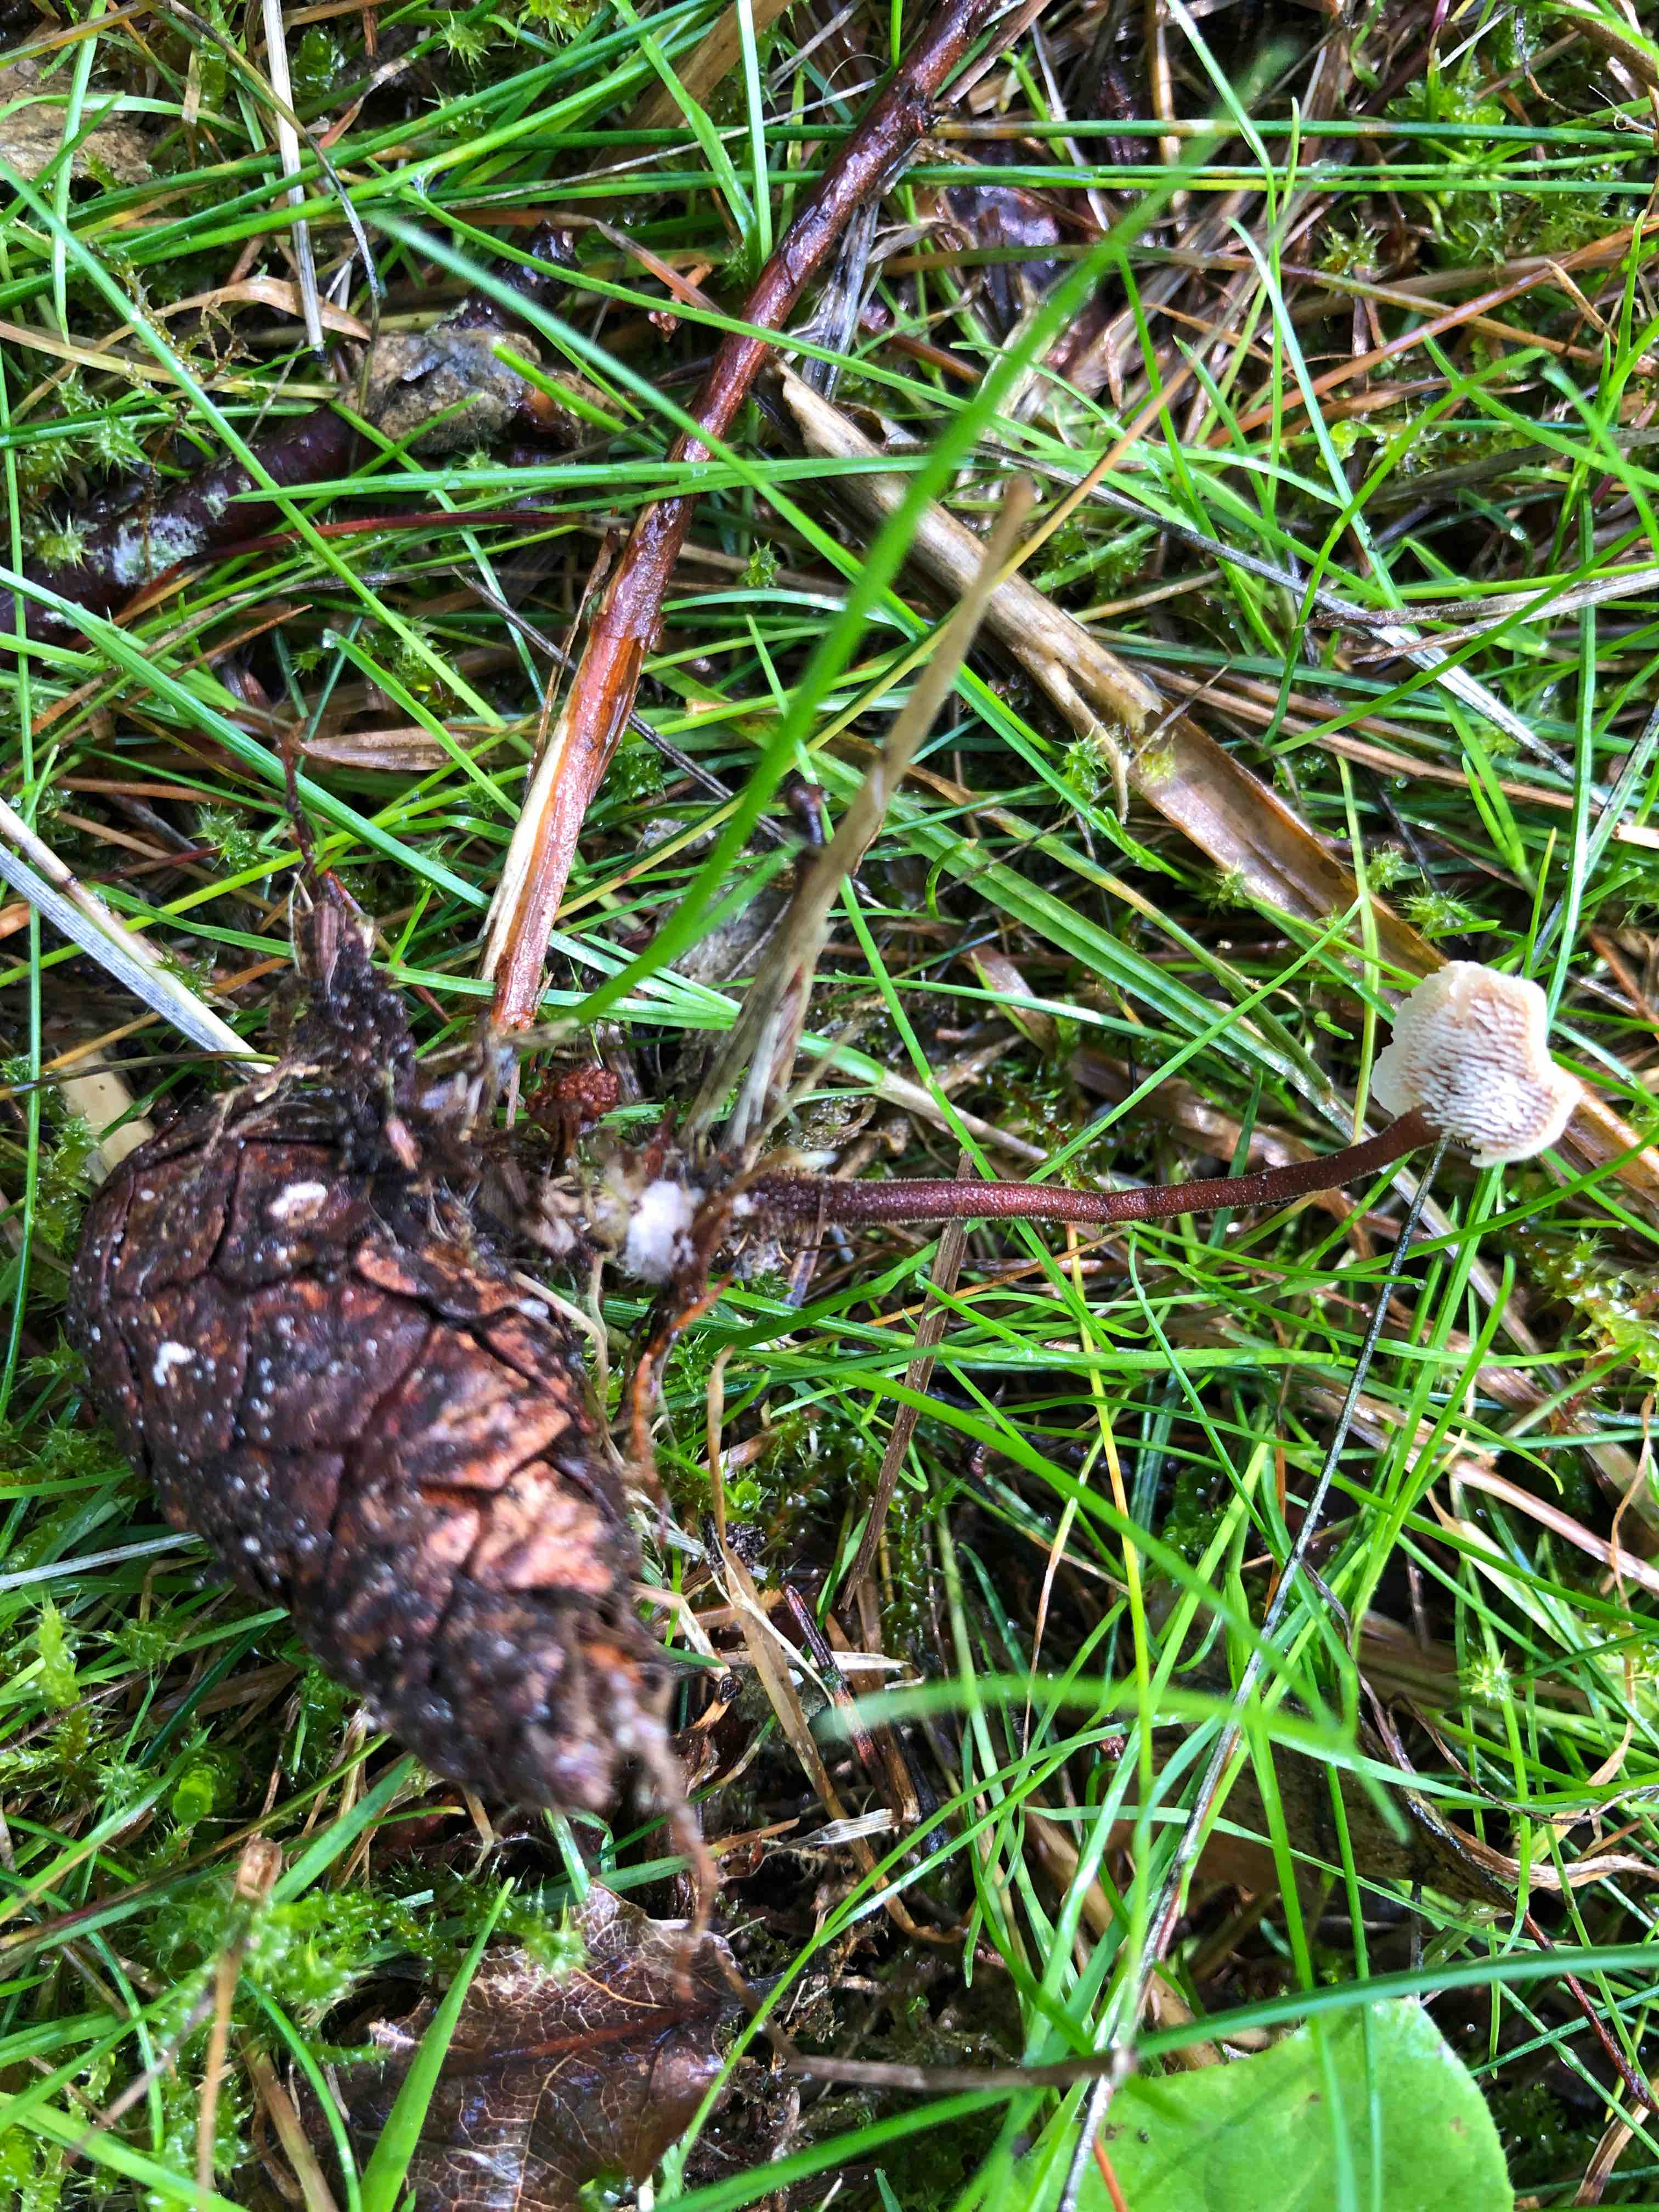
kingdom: Fungi
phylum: Basidiomycota
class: Agaricomycetes
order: Russulales
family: Auriscalpiaceae
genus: Auriscalpium
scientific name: Auriscalpium vulgare
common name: koglepigsvamp
